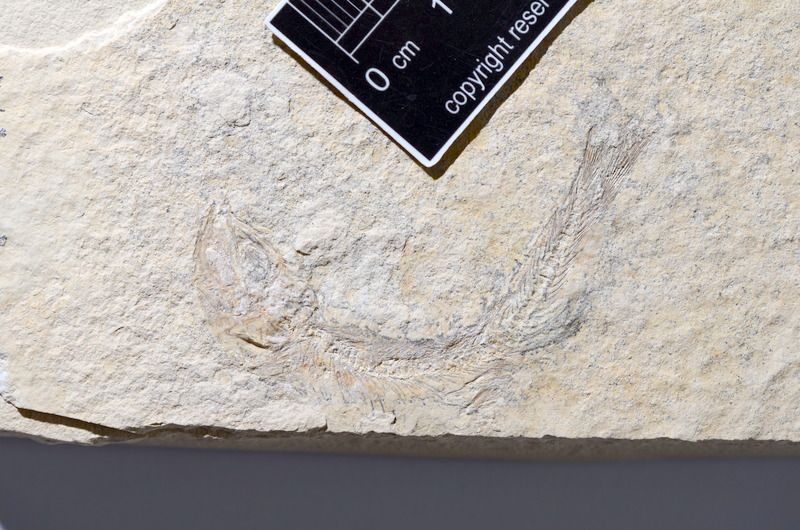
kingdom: Animalia
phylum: Chordata
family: Ascalaboidae
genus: Tharsis
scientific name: Tharsis dubius
